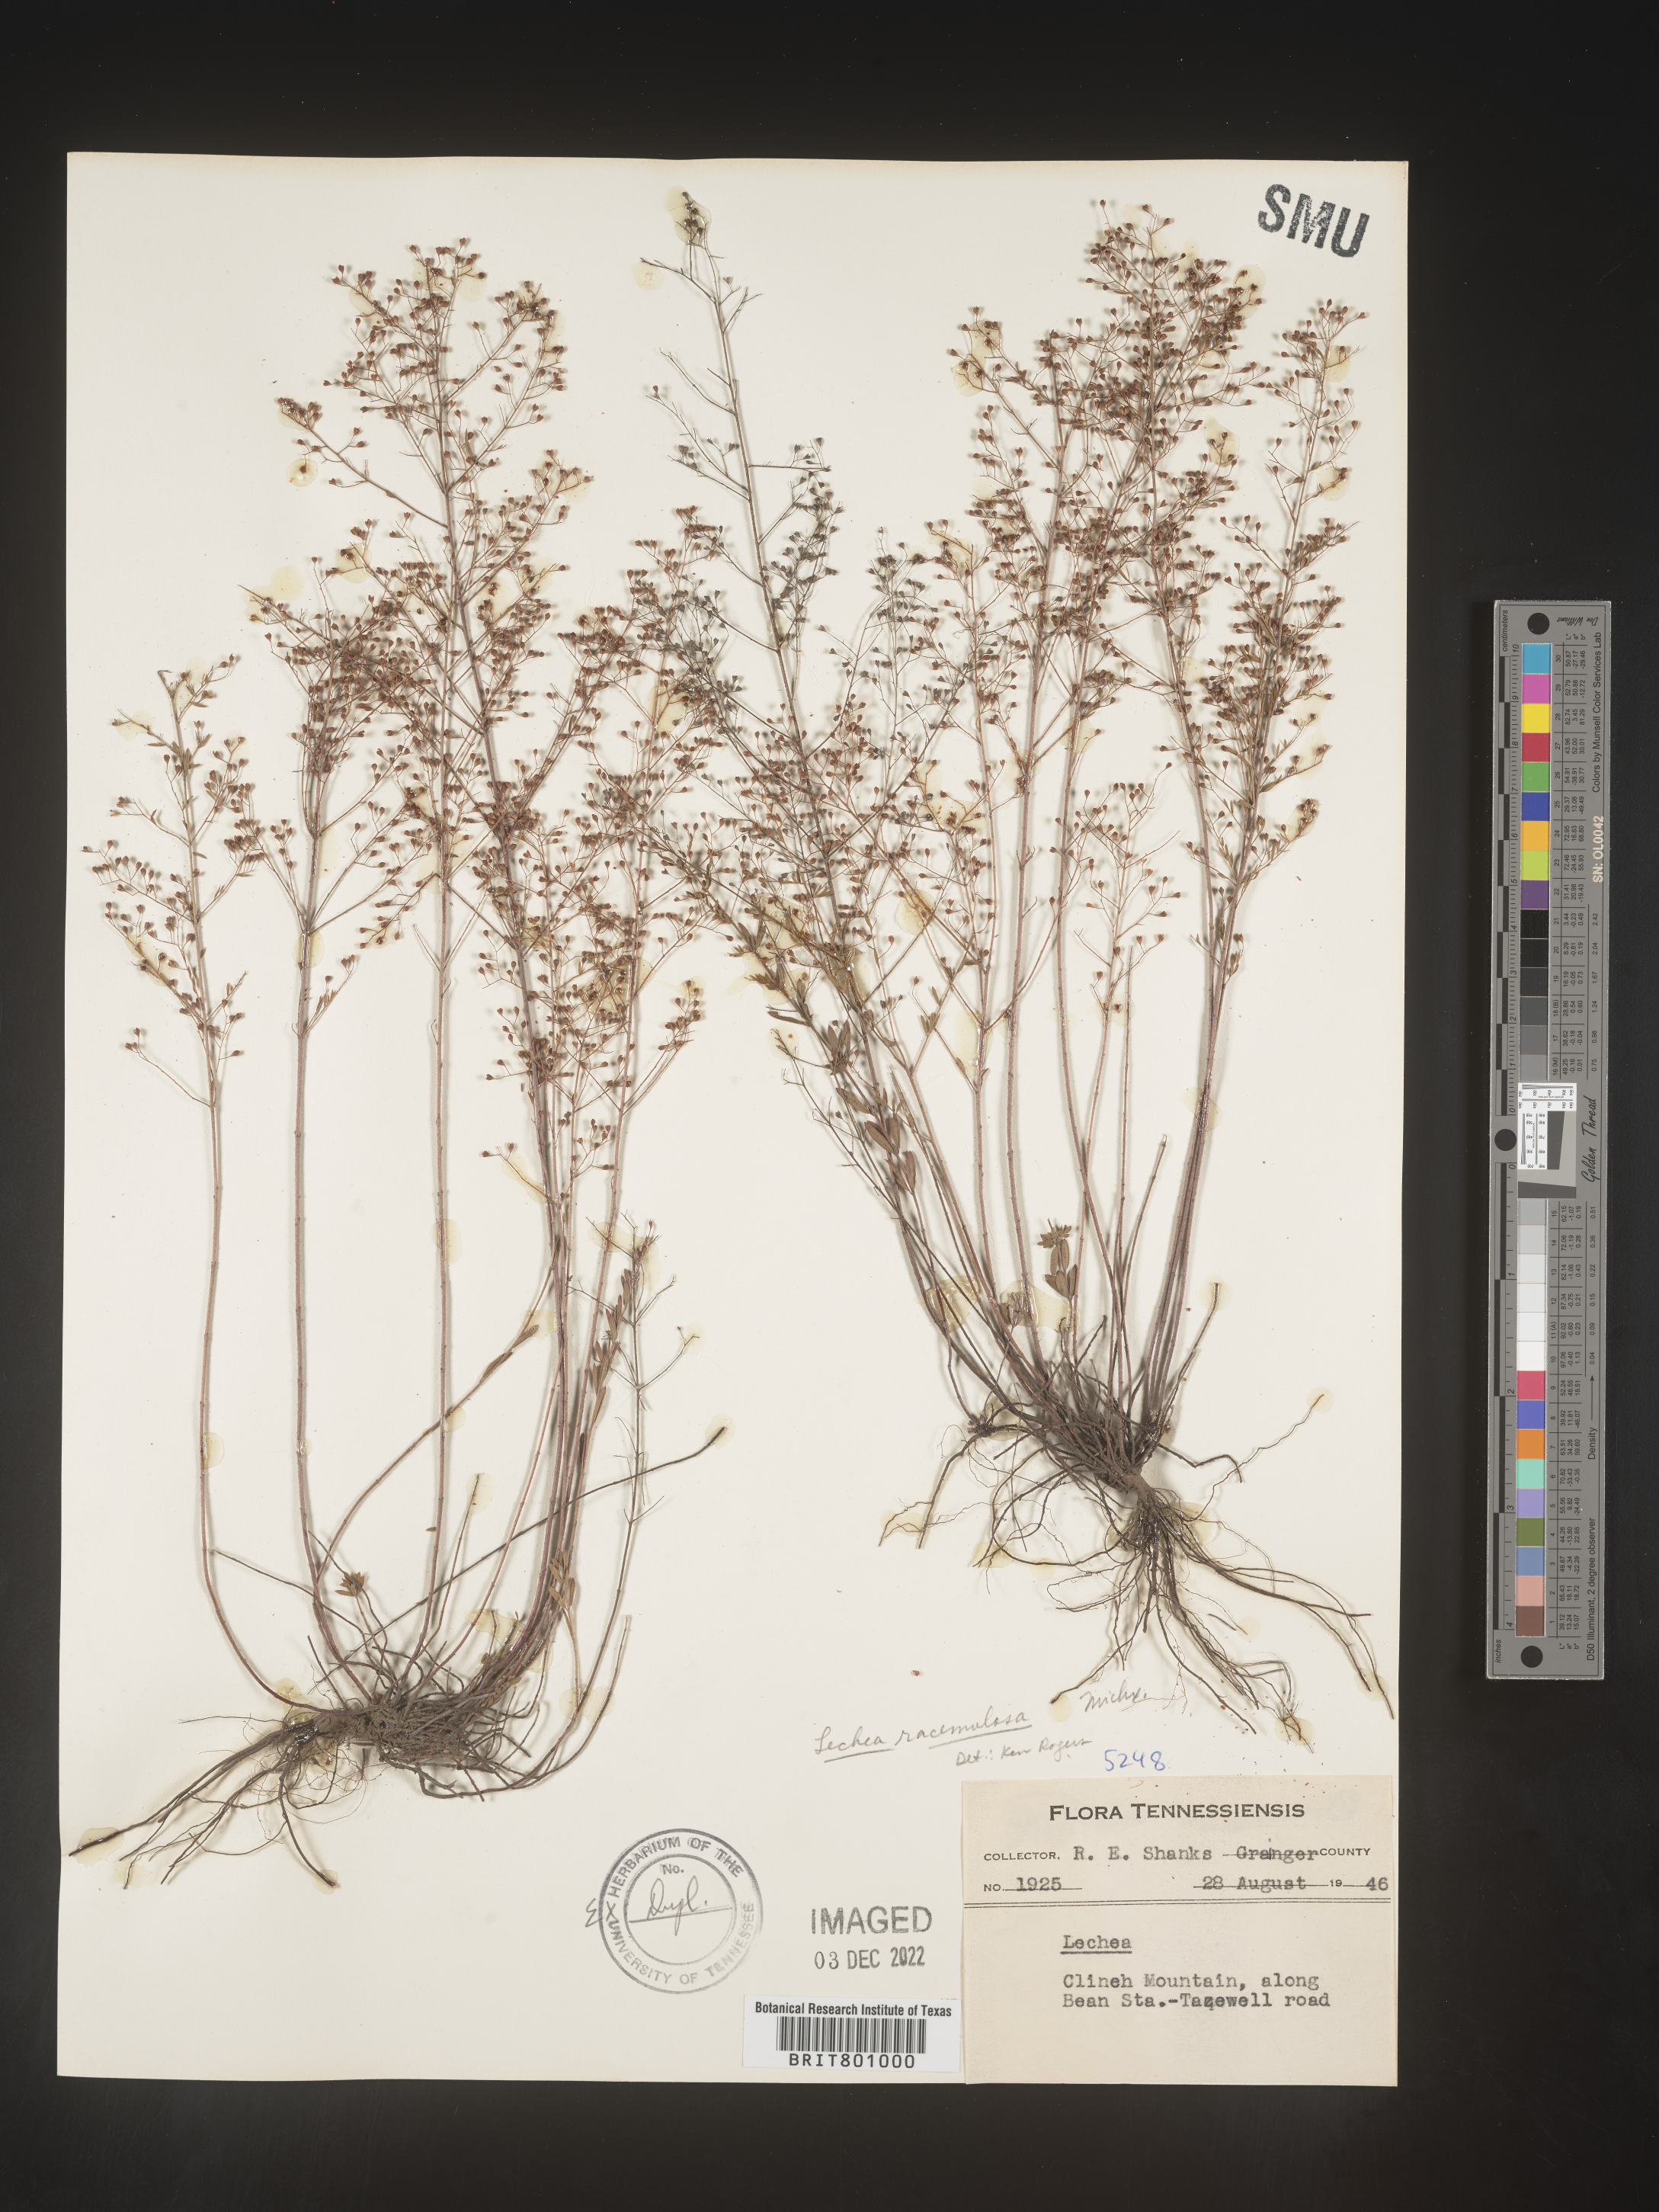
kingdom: Plantae
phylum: Tracheophyta
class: Magnoliopsida
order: Malvales
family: Cistaceae
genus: Lechea
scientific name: Lechea racemulosa
